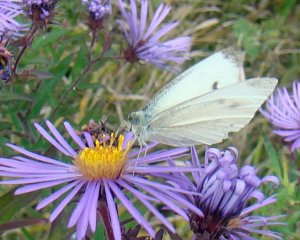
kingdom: Animalia
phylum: Arthropoda
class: Insecta
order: Lepidoptera
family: Pieridae
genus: Pieris
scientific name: Pieris rapae
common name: Cabbage White
